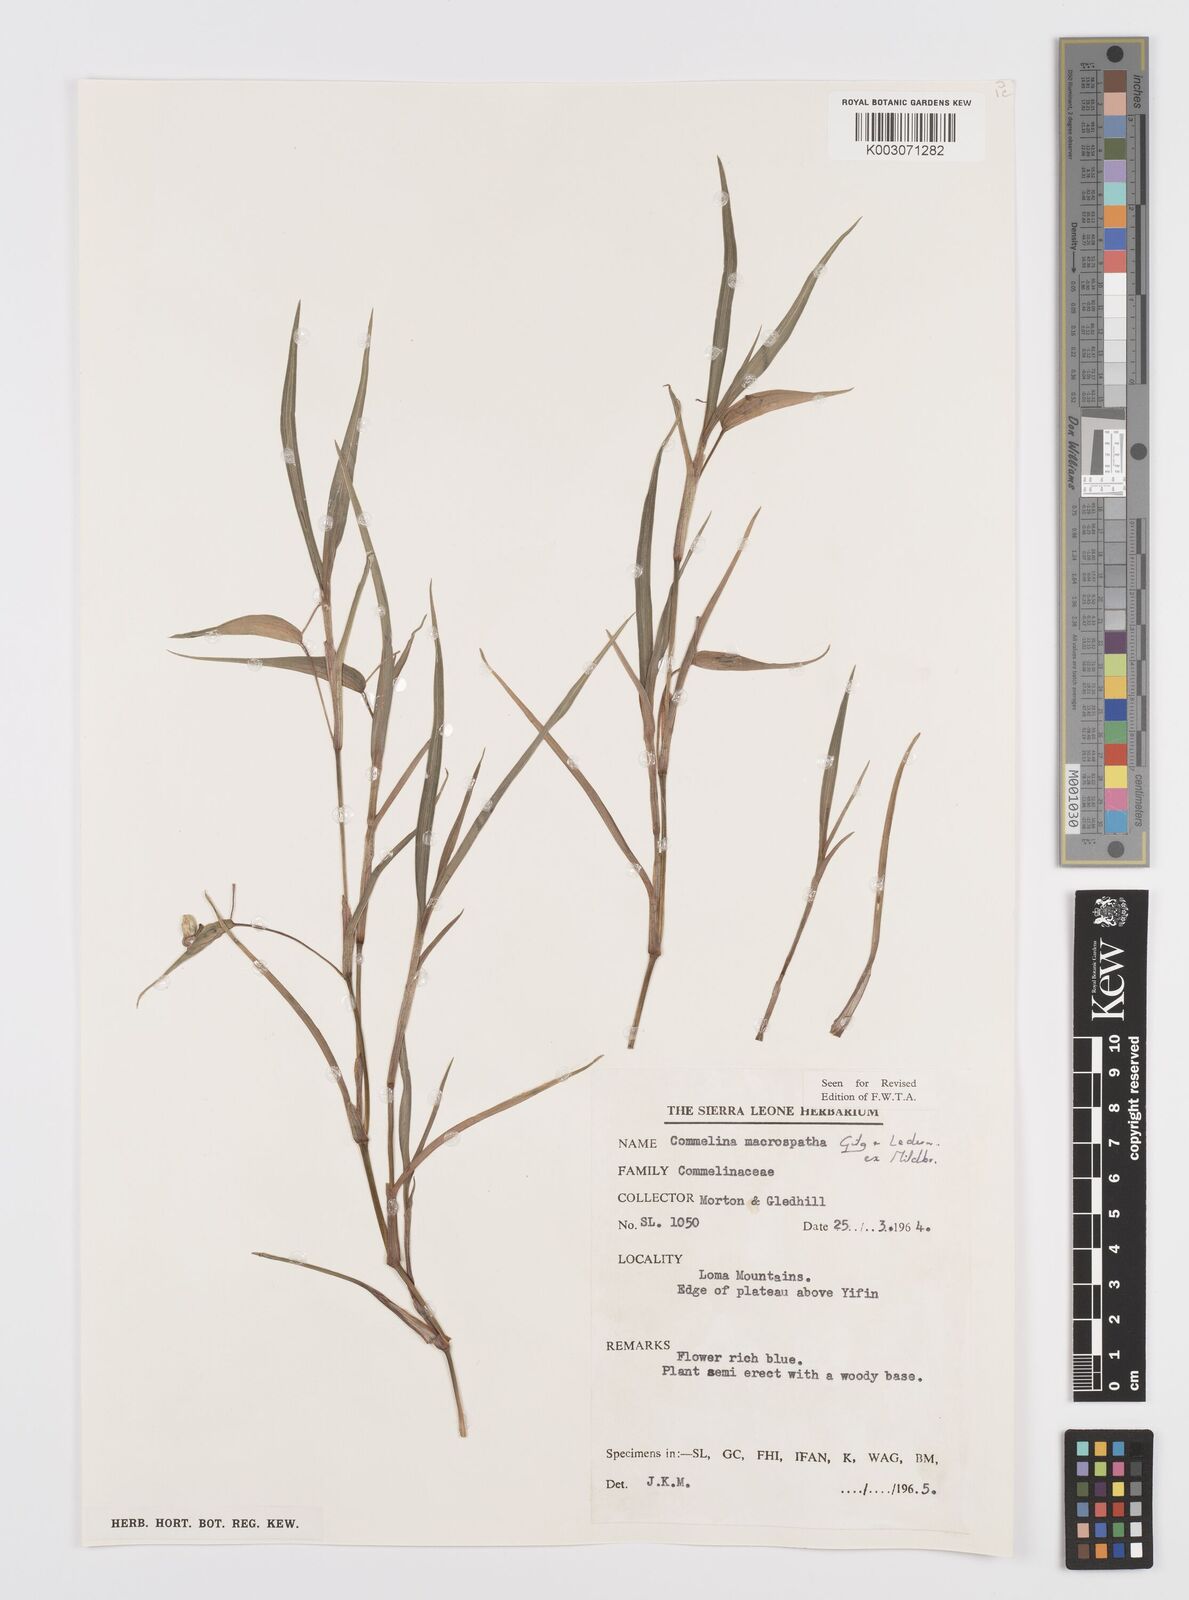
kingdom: Plantae
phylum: Tracheophyta
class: Liliopsida
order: Commelinales
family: Commelinaceae
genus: Commelina
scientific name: Commelina macrospatha
